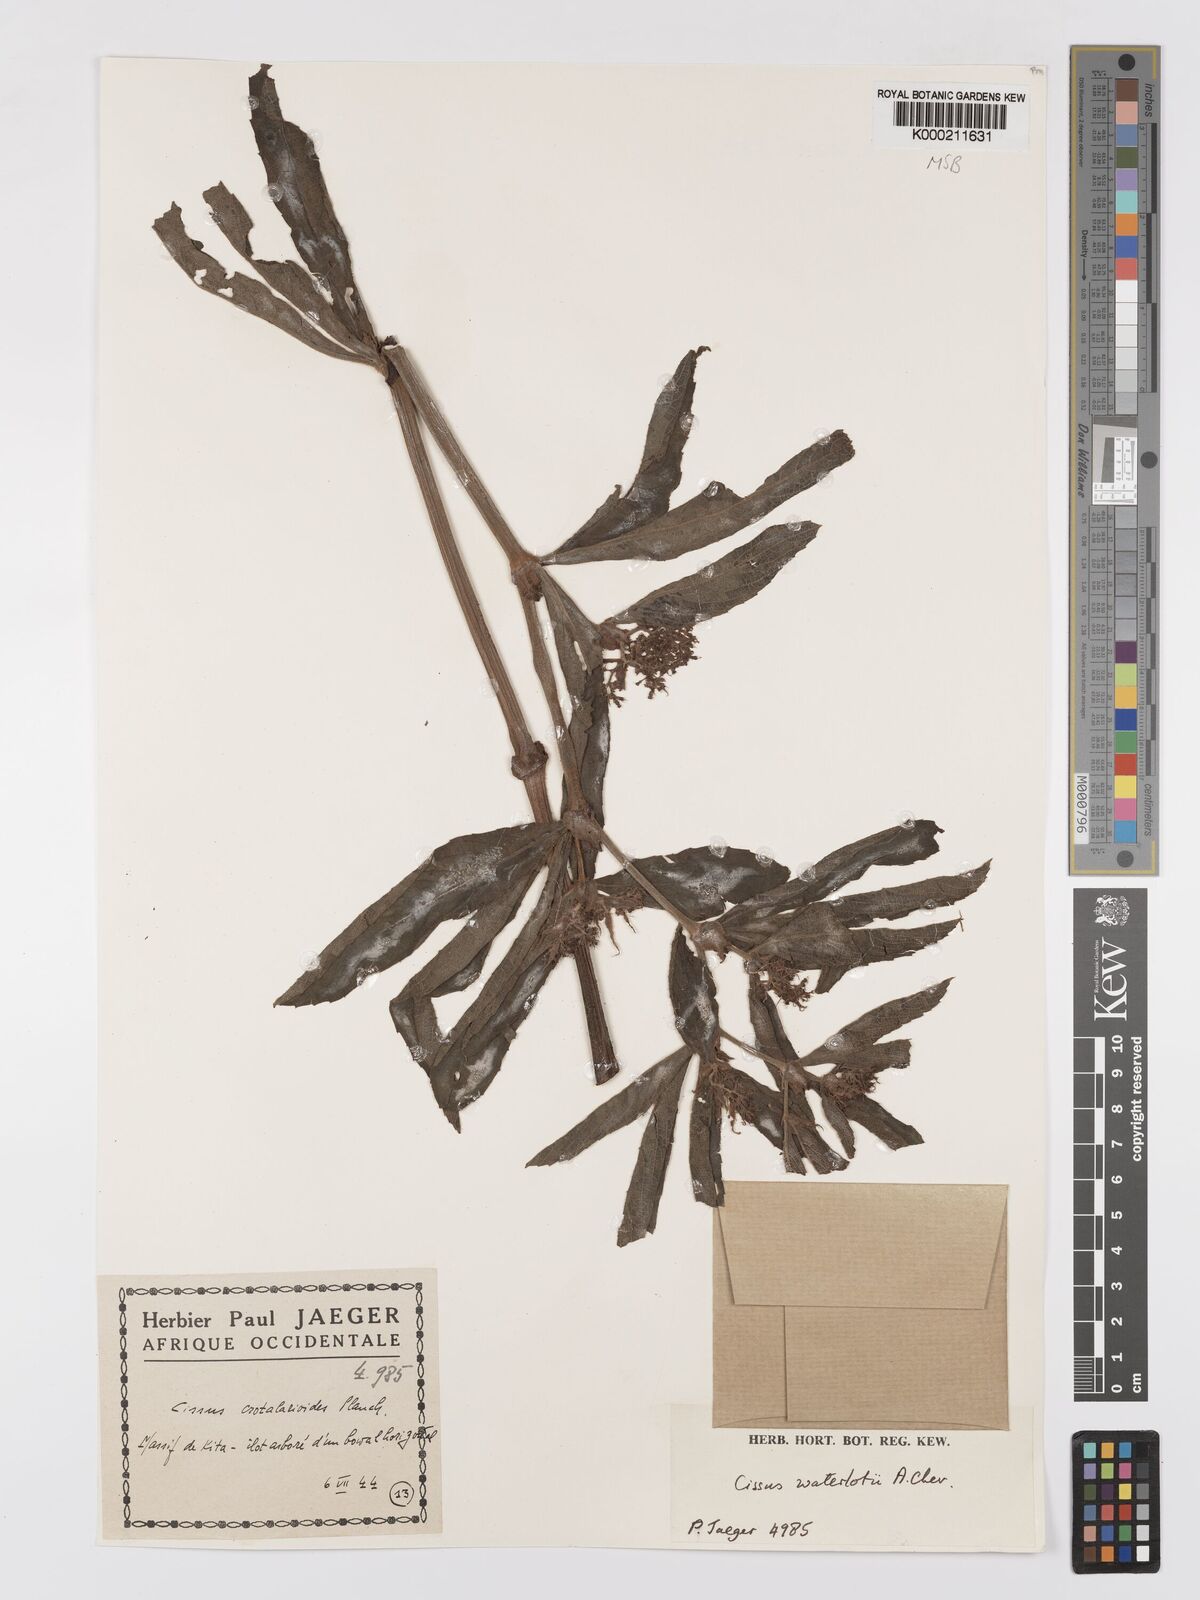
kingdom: Plantae
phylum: Tracheophyta
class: Magnoliopsida
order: Vitales
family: Vitaceae
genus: Cyphostemma
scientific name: Cyphostemma waterlotii
